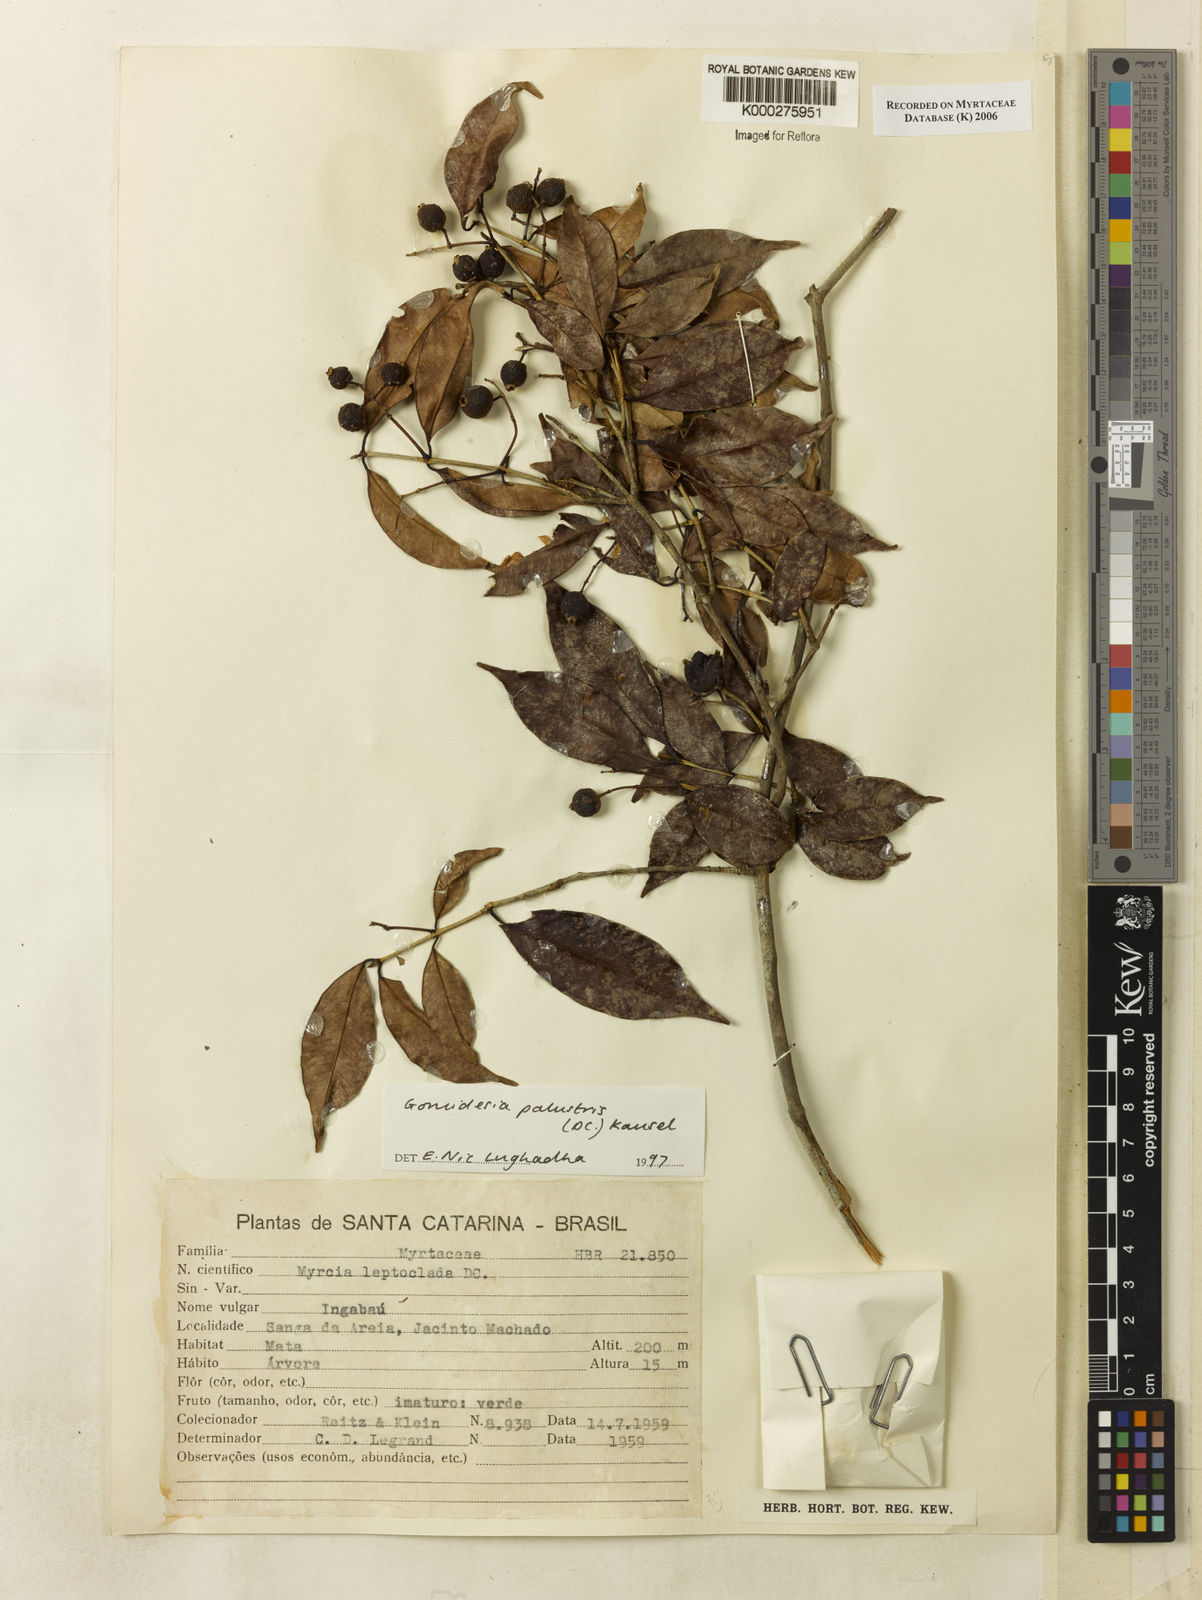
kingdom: Plantae
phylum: Tracheophyta
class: Magnoliopsida
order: Myrtales
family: Myrtaceae
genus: Myrcia
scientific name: Myrcia palustris
